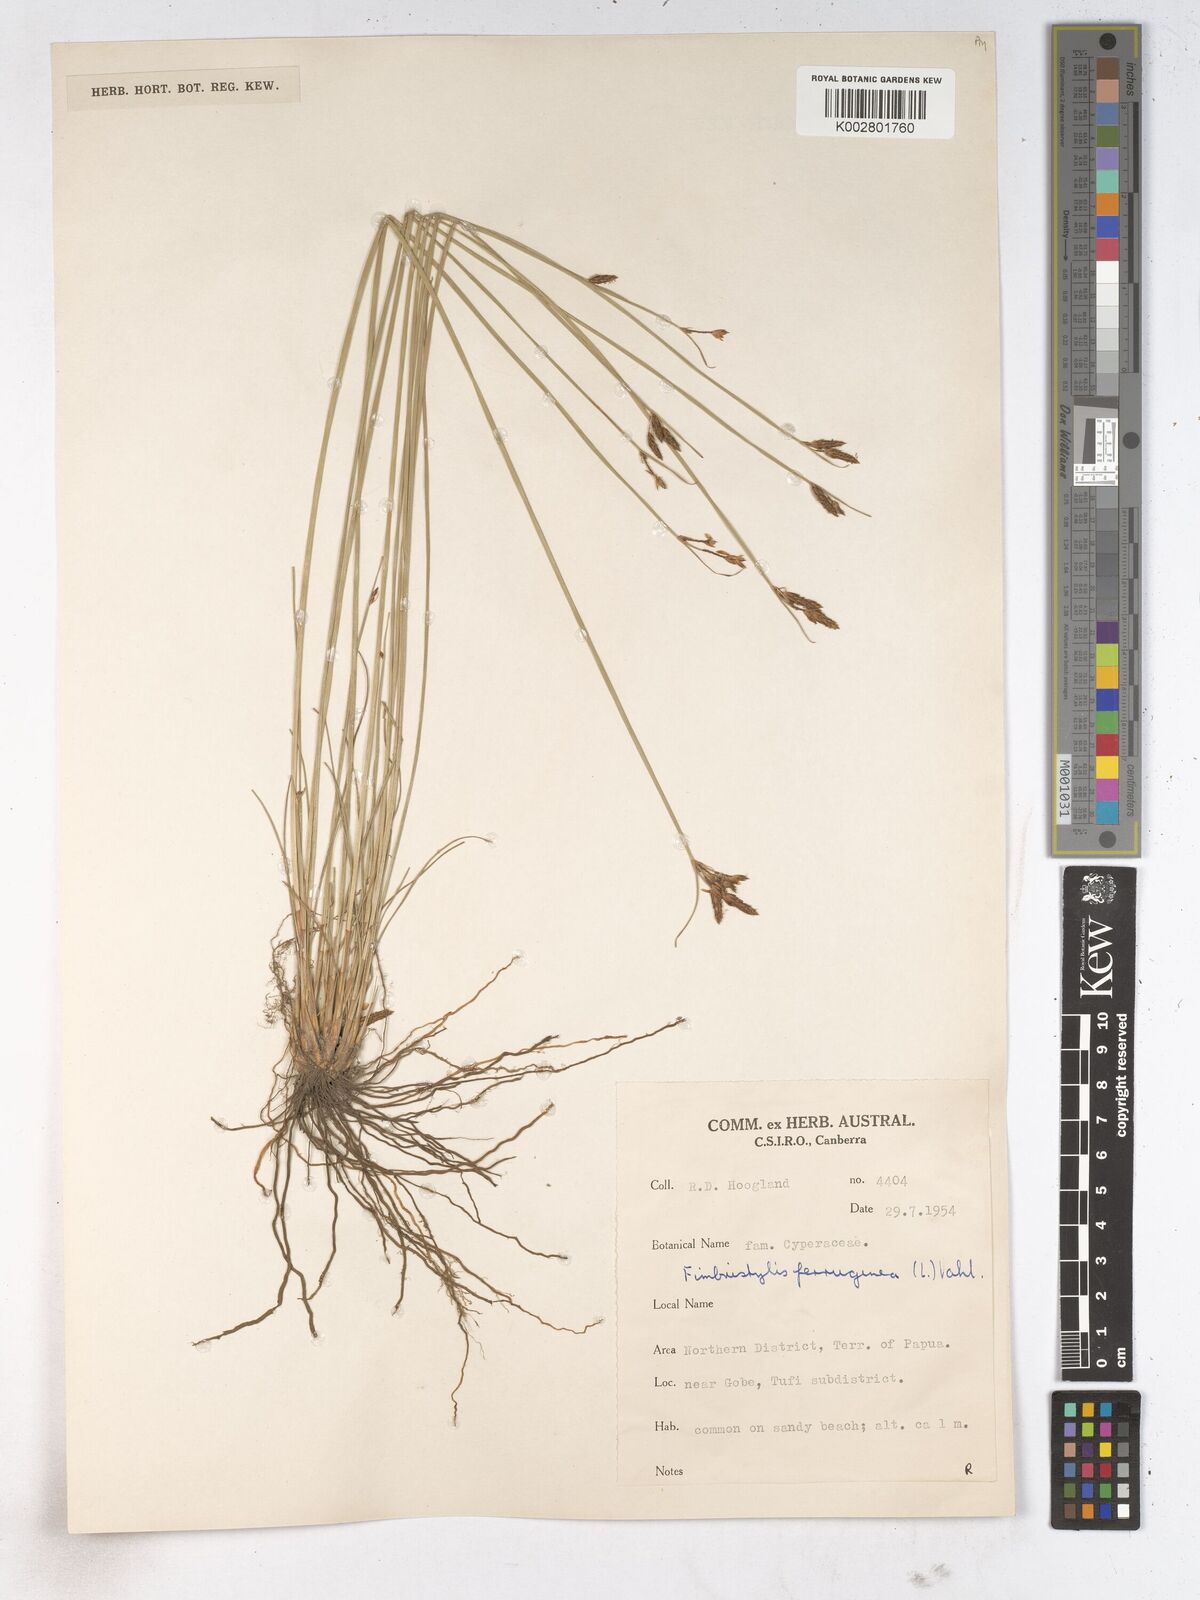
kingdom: Plantae
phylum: Tracheophyta
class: Liliopsida
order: Poales
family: Cyperaceae
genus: Fimbristylis
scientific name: Fimbristylis ferruginea
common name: West indian fimbry
